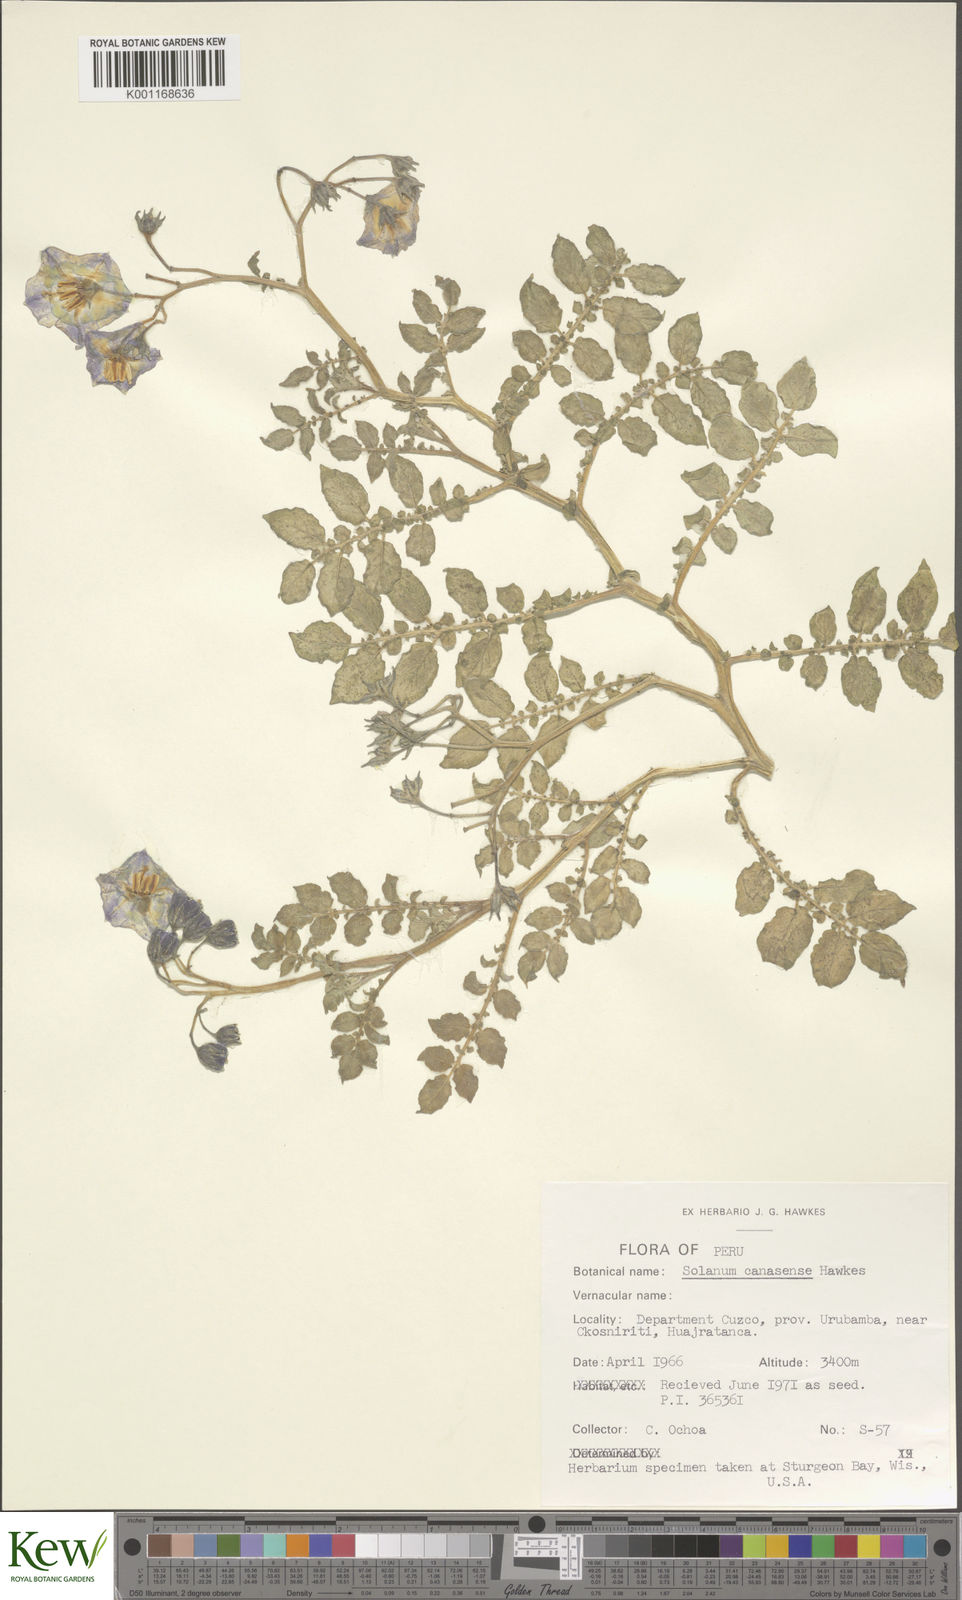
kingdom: Plantae
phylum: Tracheophyta
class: Magnoliopsida
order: Solanales
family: Solanaceae
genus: Solanum
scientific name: Solanum candolleanum
